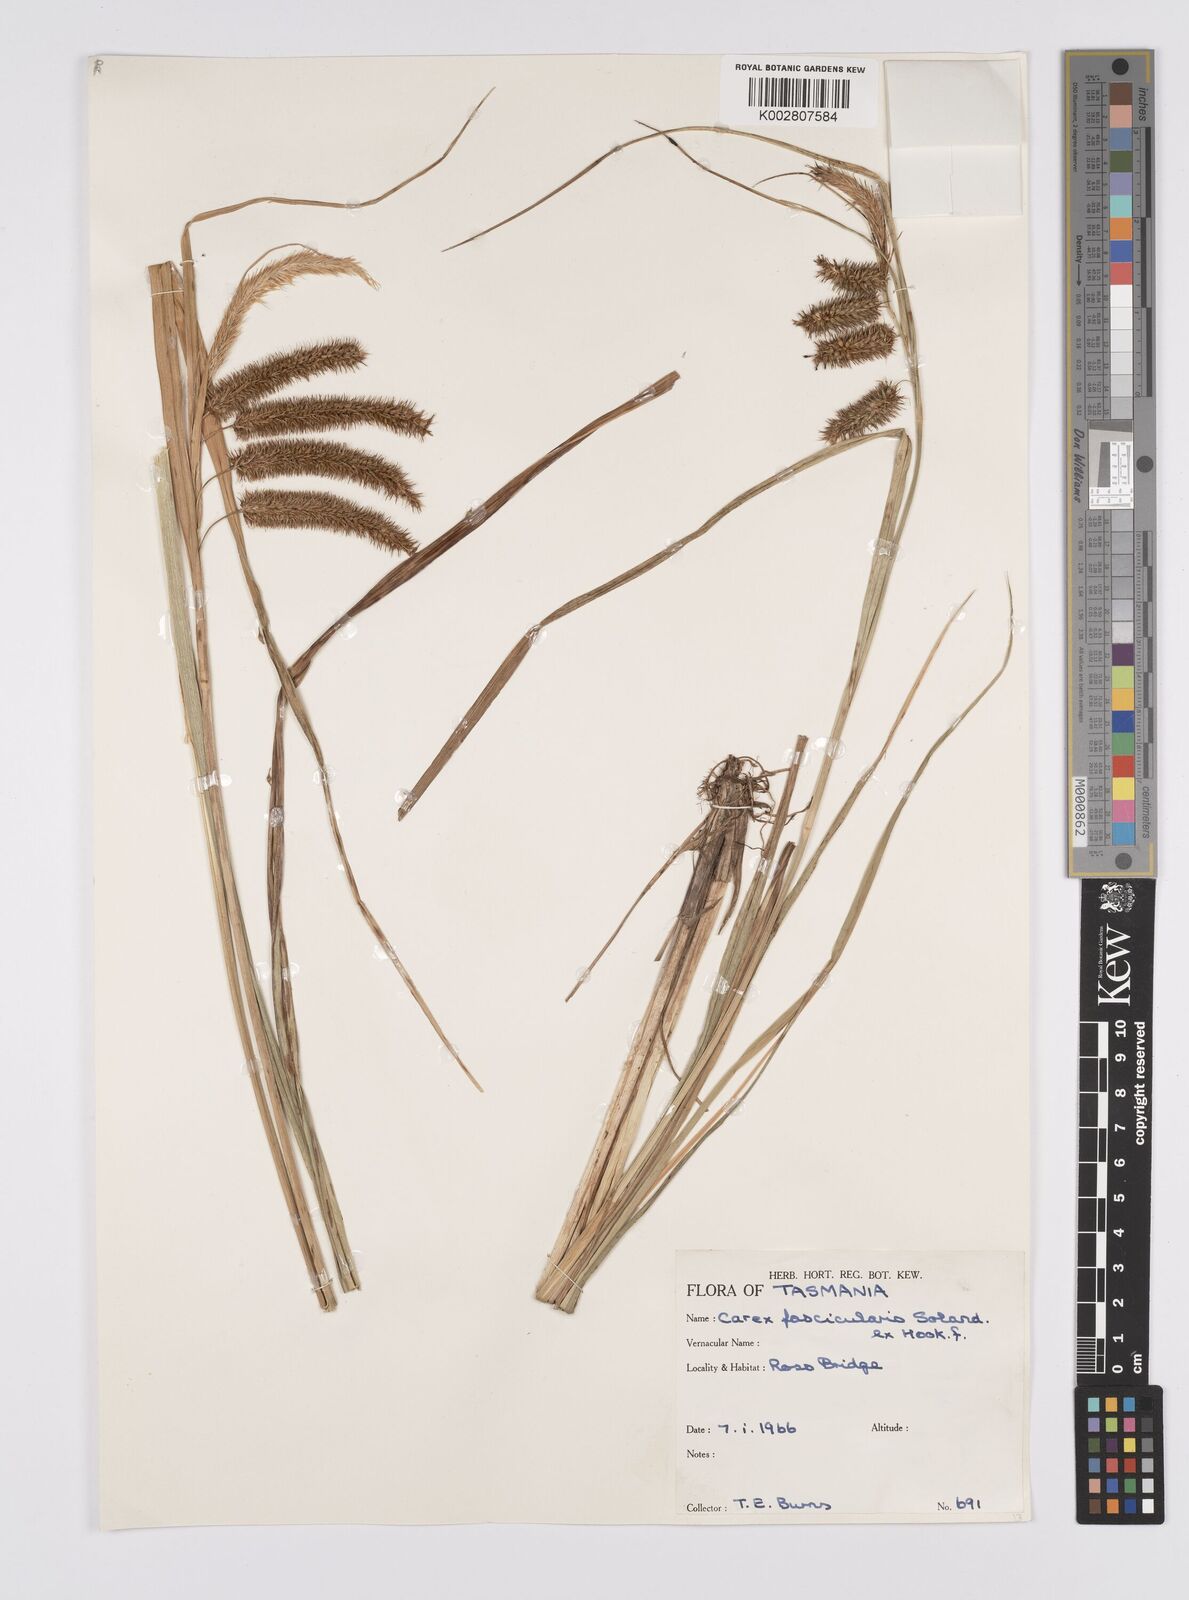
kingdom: Plantae
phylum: Tracheophyta
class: Liliopsida
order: Poales
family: Cyperaceae
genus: Carex
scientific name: Carex fascicularis
